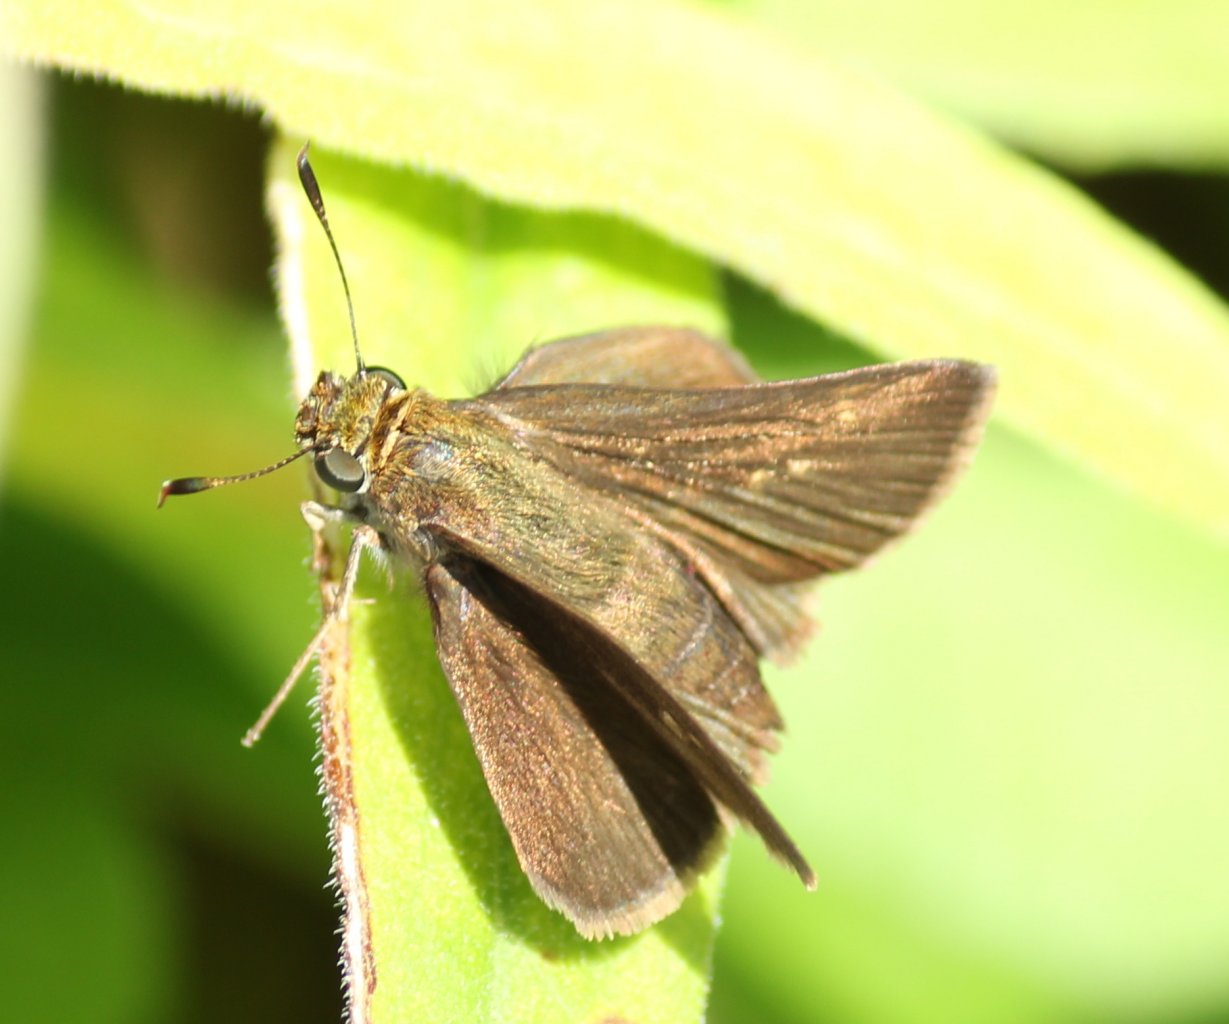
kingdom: Animalia
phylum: Arthropoda
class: Insecta
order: Lepidoptera
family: Hesperiidae
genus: Euphyes
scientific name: Euphyes vestris
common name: Dun Skipper
